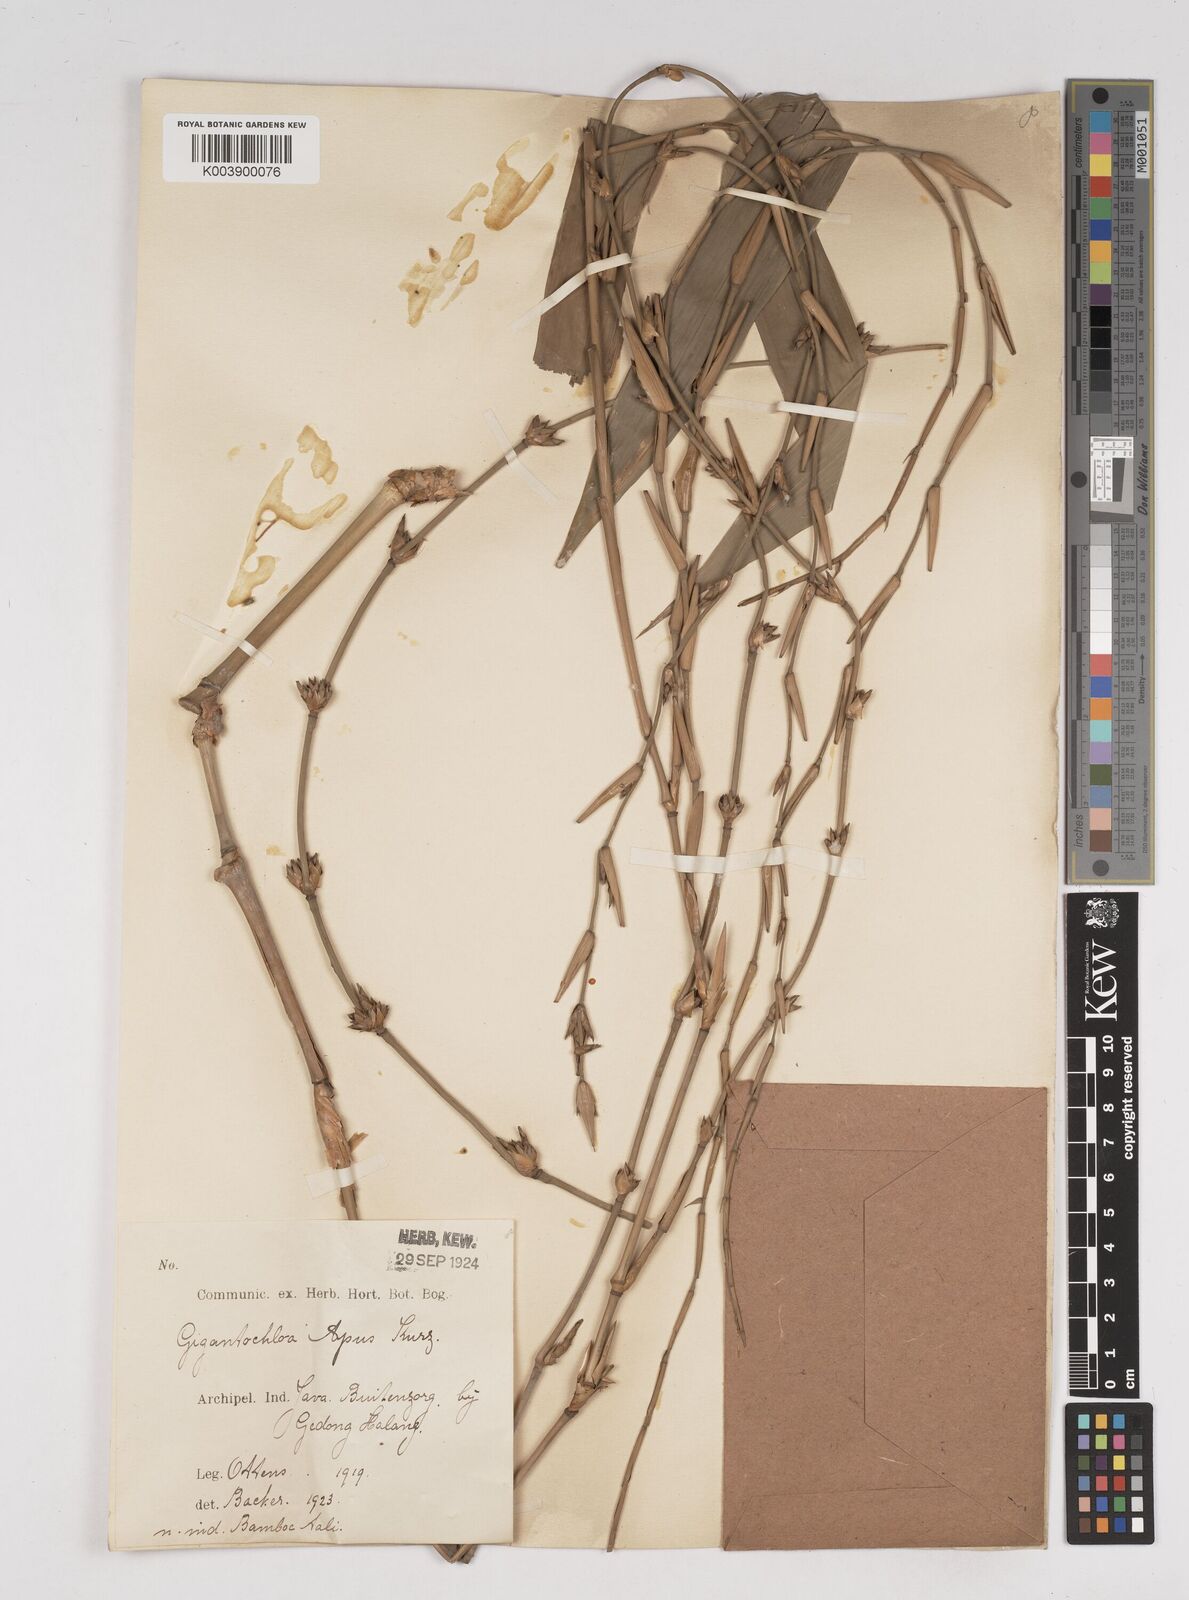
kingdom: Plantae
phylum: Tracheophyta
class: Liliopsida
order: Poales
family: Poaceae
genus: Gigantochloa
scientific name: Gigantochloa apus
